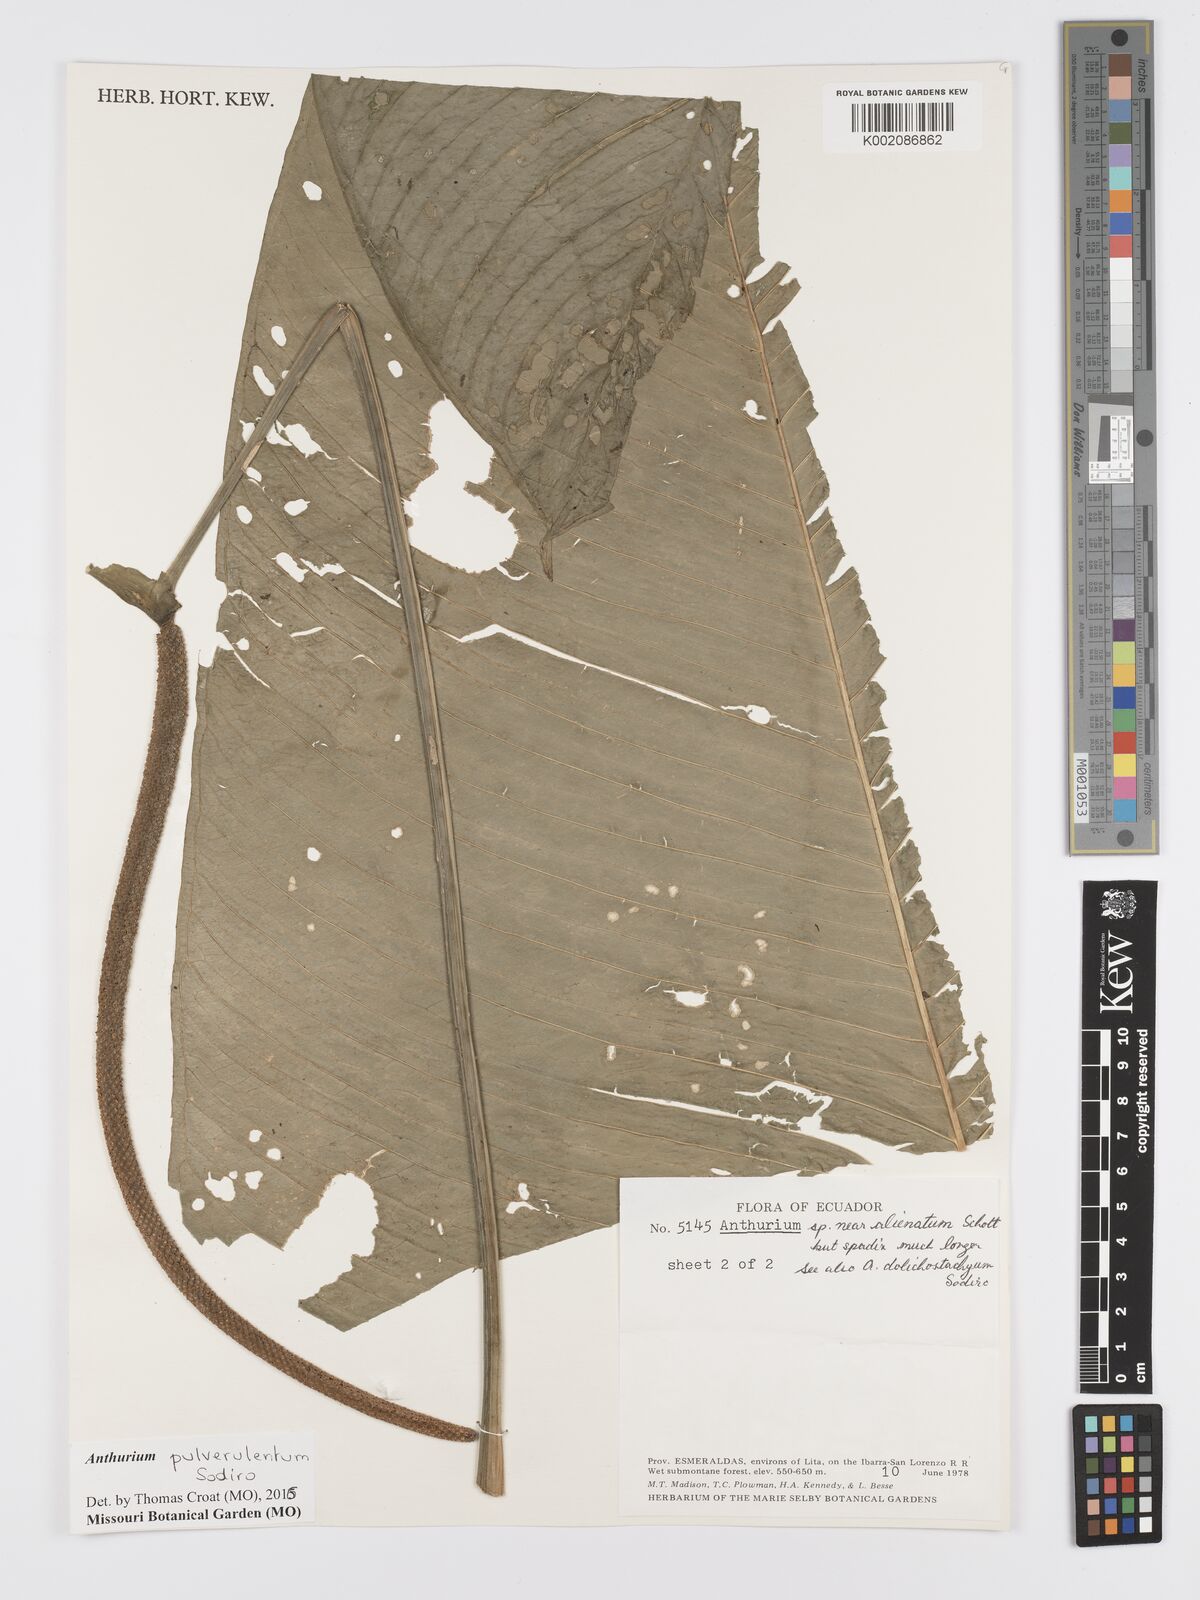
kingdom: Plantae
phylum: Tracheophyta
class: Liliopsida
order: Alismatales
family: Araceae
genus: Anthurium
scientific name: Anthurium pulverulentum
